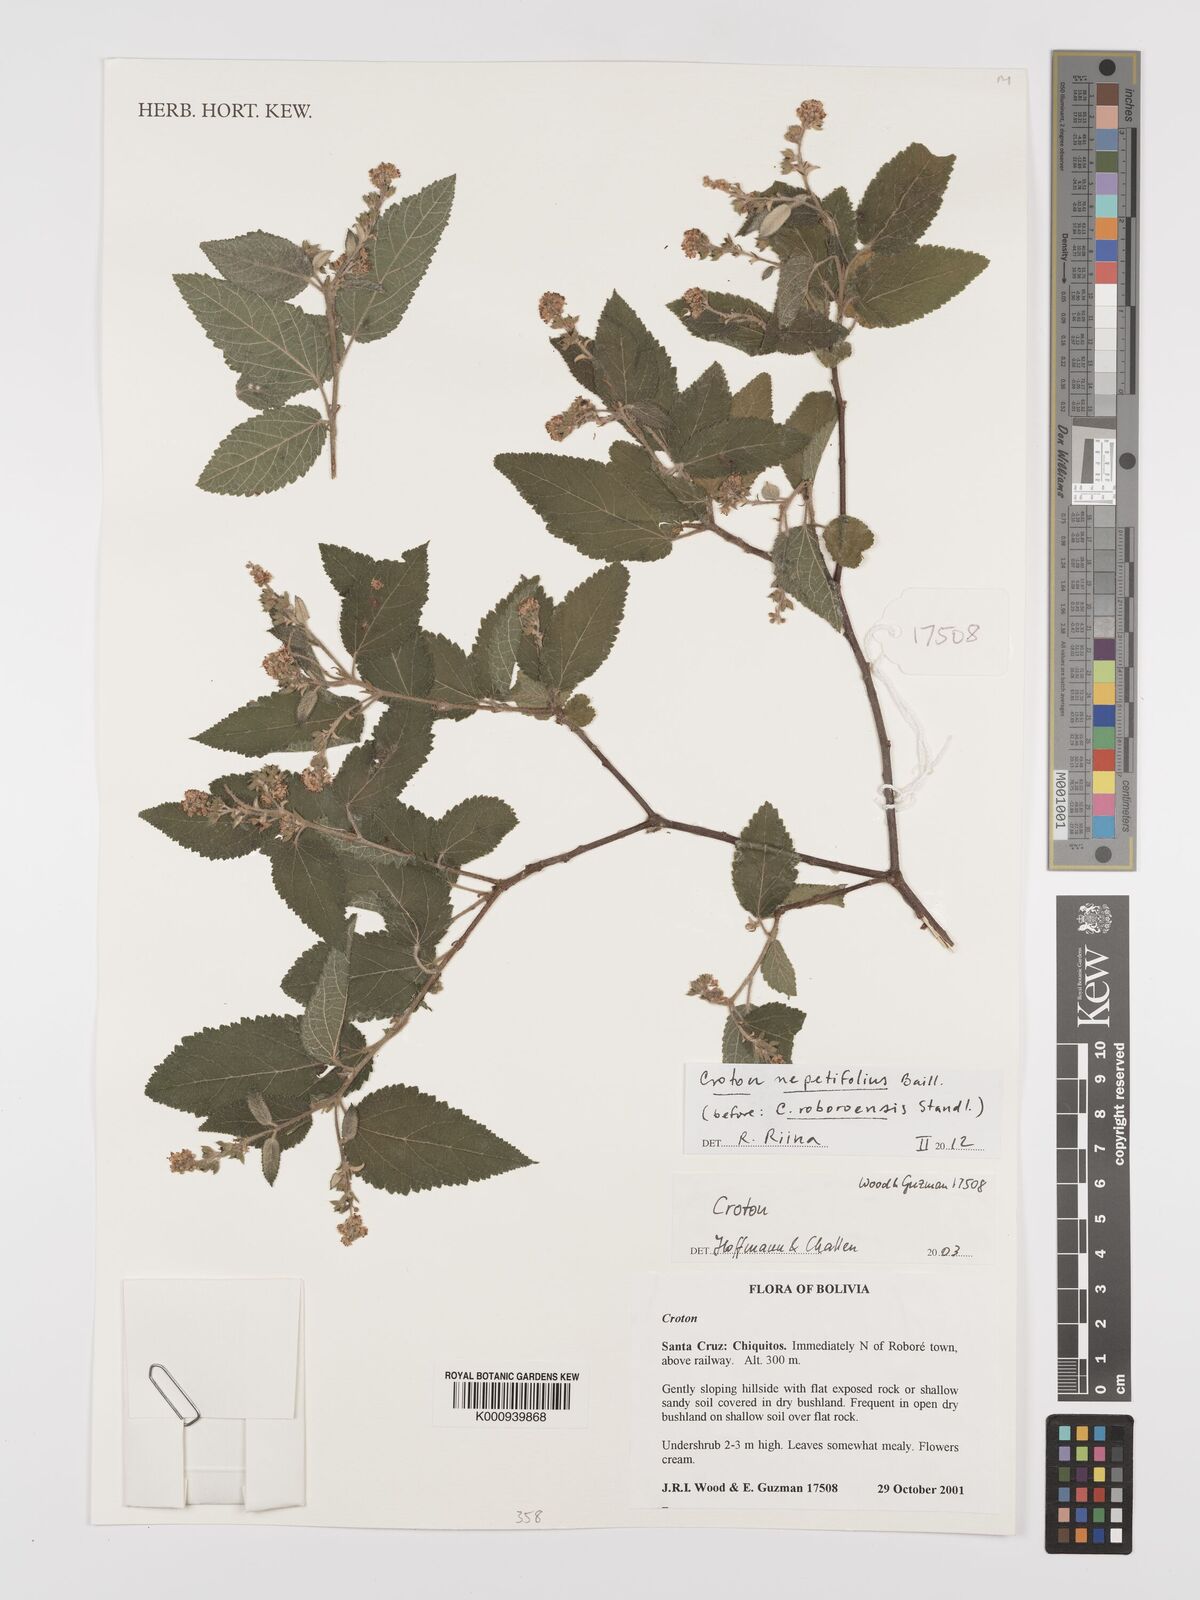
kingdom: Plantae
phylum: Tracheophyta
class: Magnoliopsida
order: Malpighiales
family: Euphorbiaceae
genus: Croton
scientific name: Croton nepetifolius
